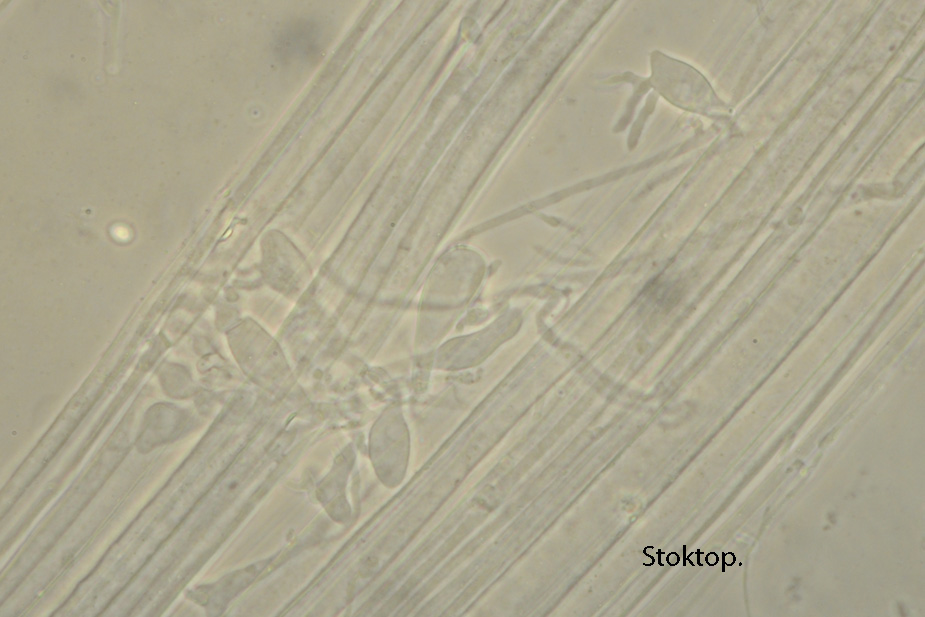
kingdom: Fungi
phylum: Basidiomycota
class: Agaricomycetes
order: Agaricales
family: Mycenaceae
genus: Mycena
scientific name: Mycena leptocephala
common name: klor-huesvamp
